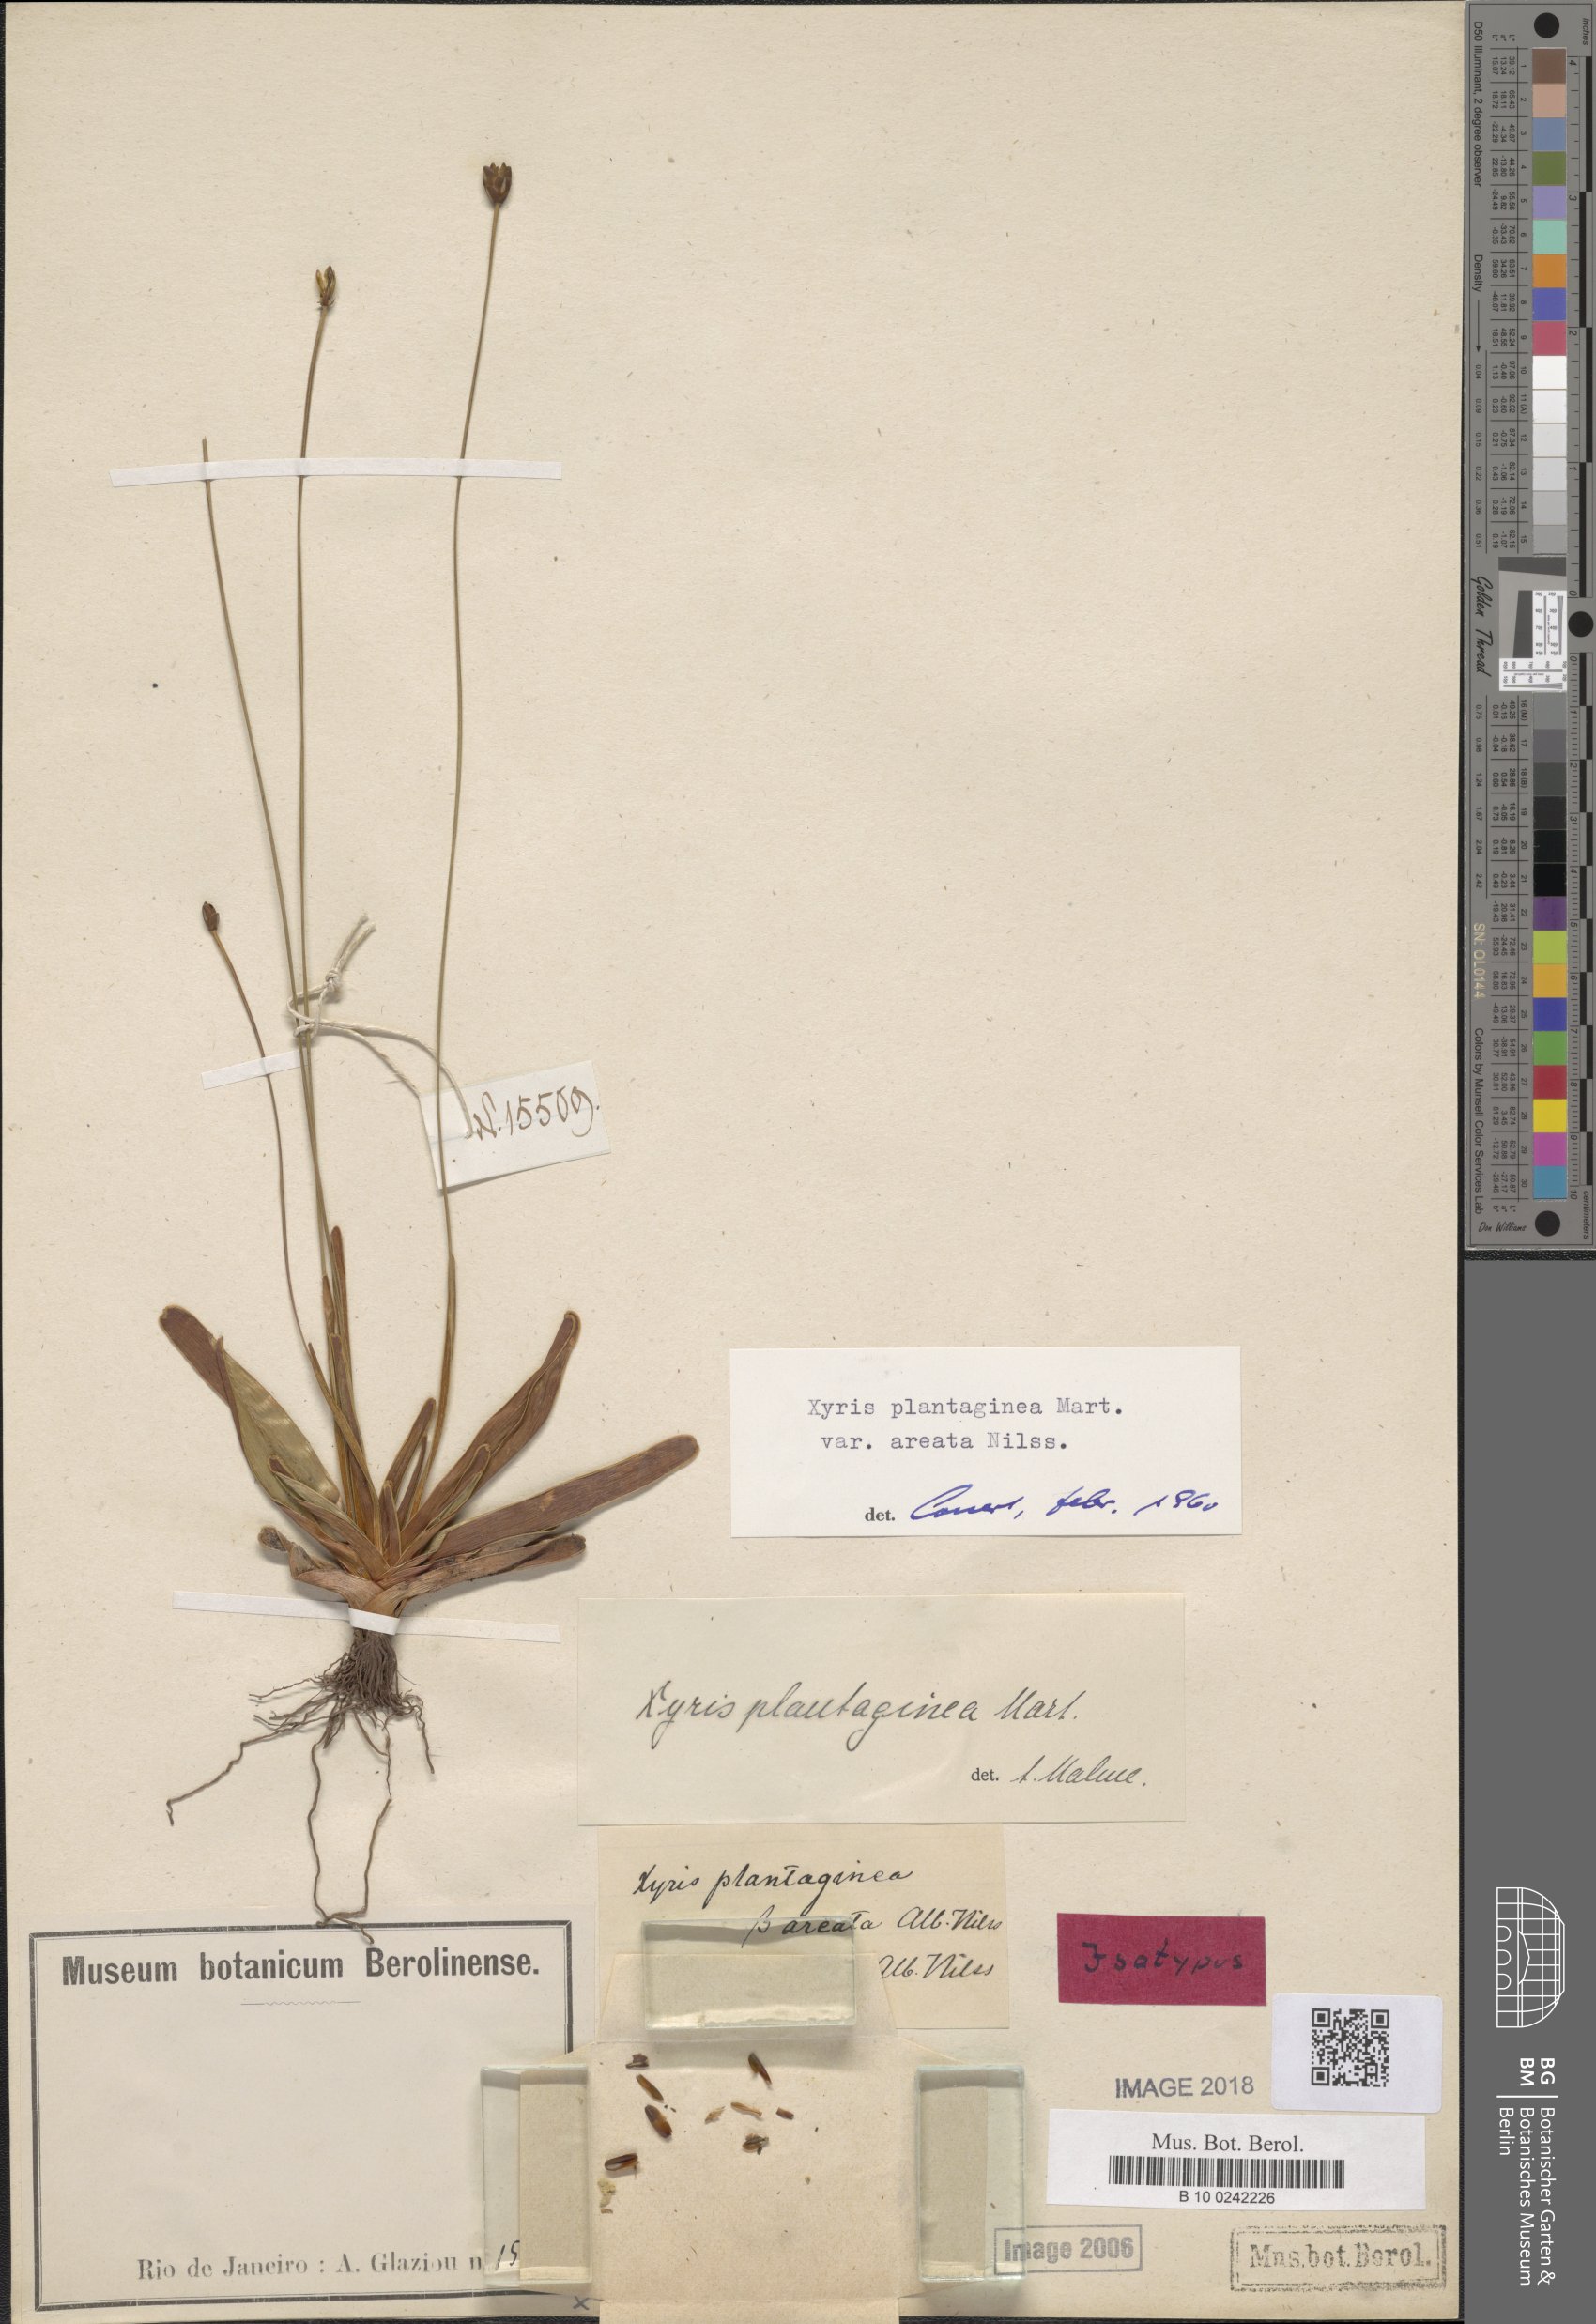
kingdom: Plantae
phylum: Tracheophyta
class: Liliopsida
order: Poales
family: Xyridaceae
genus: Xyris
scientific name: Xyris plantaginea
